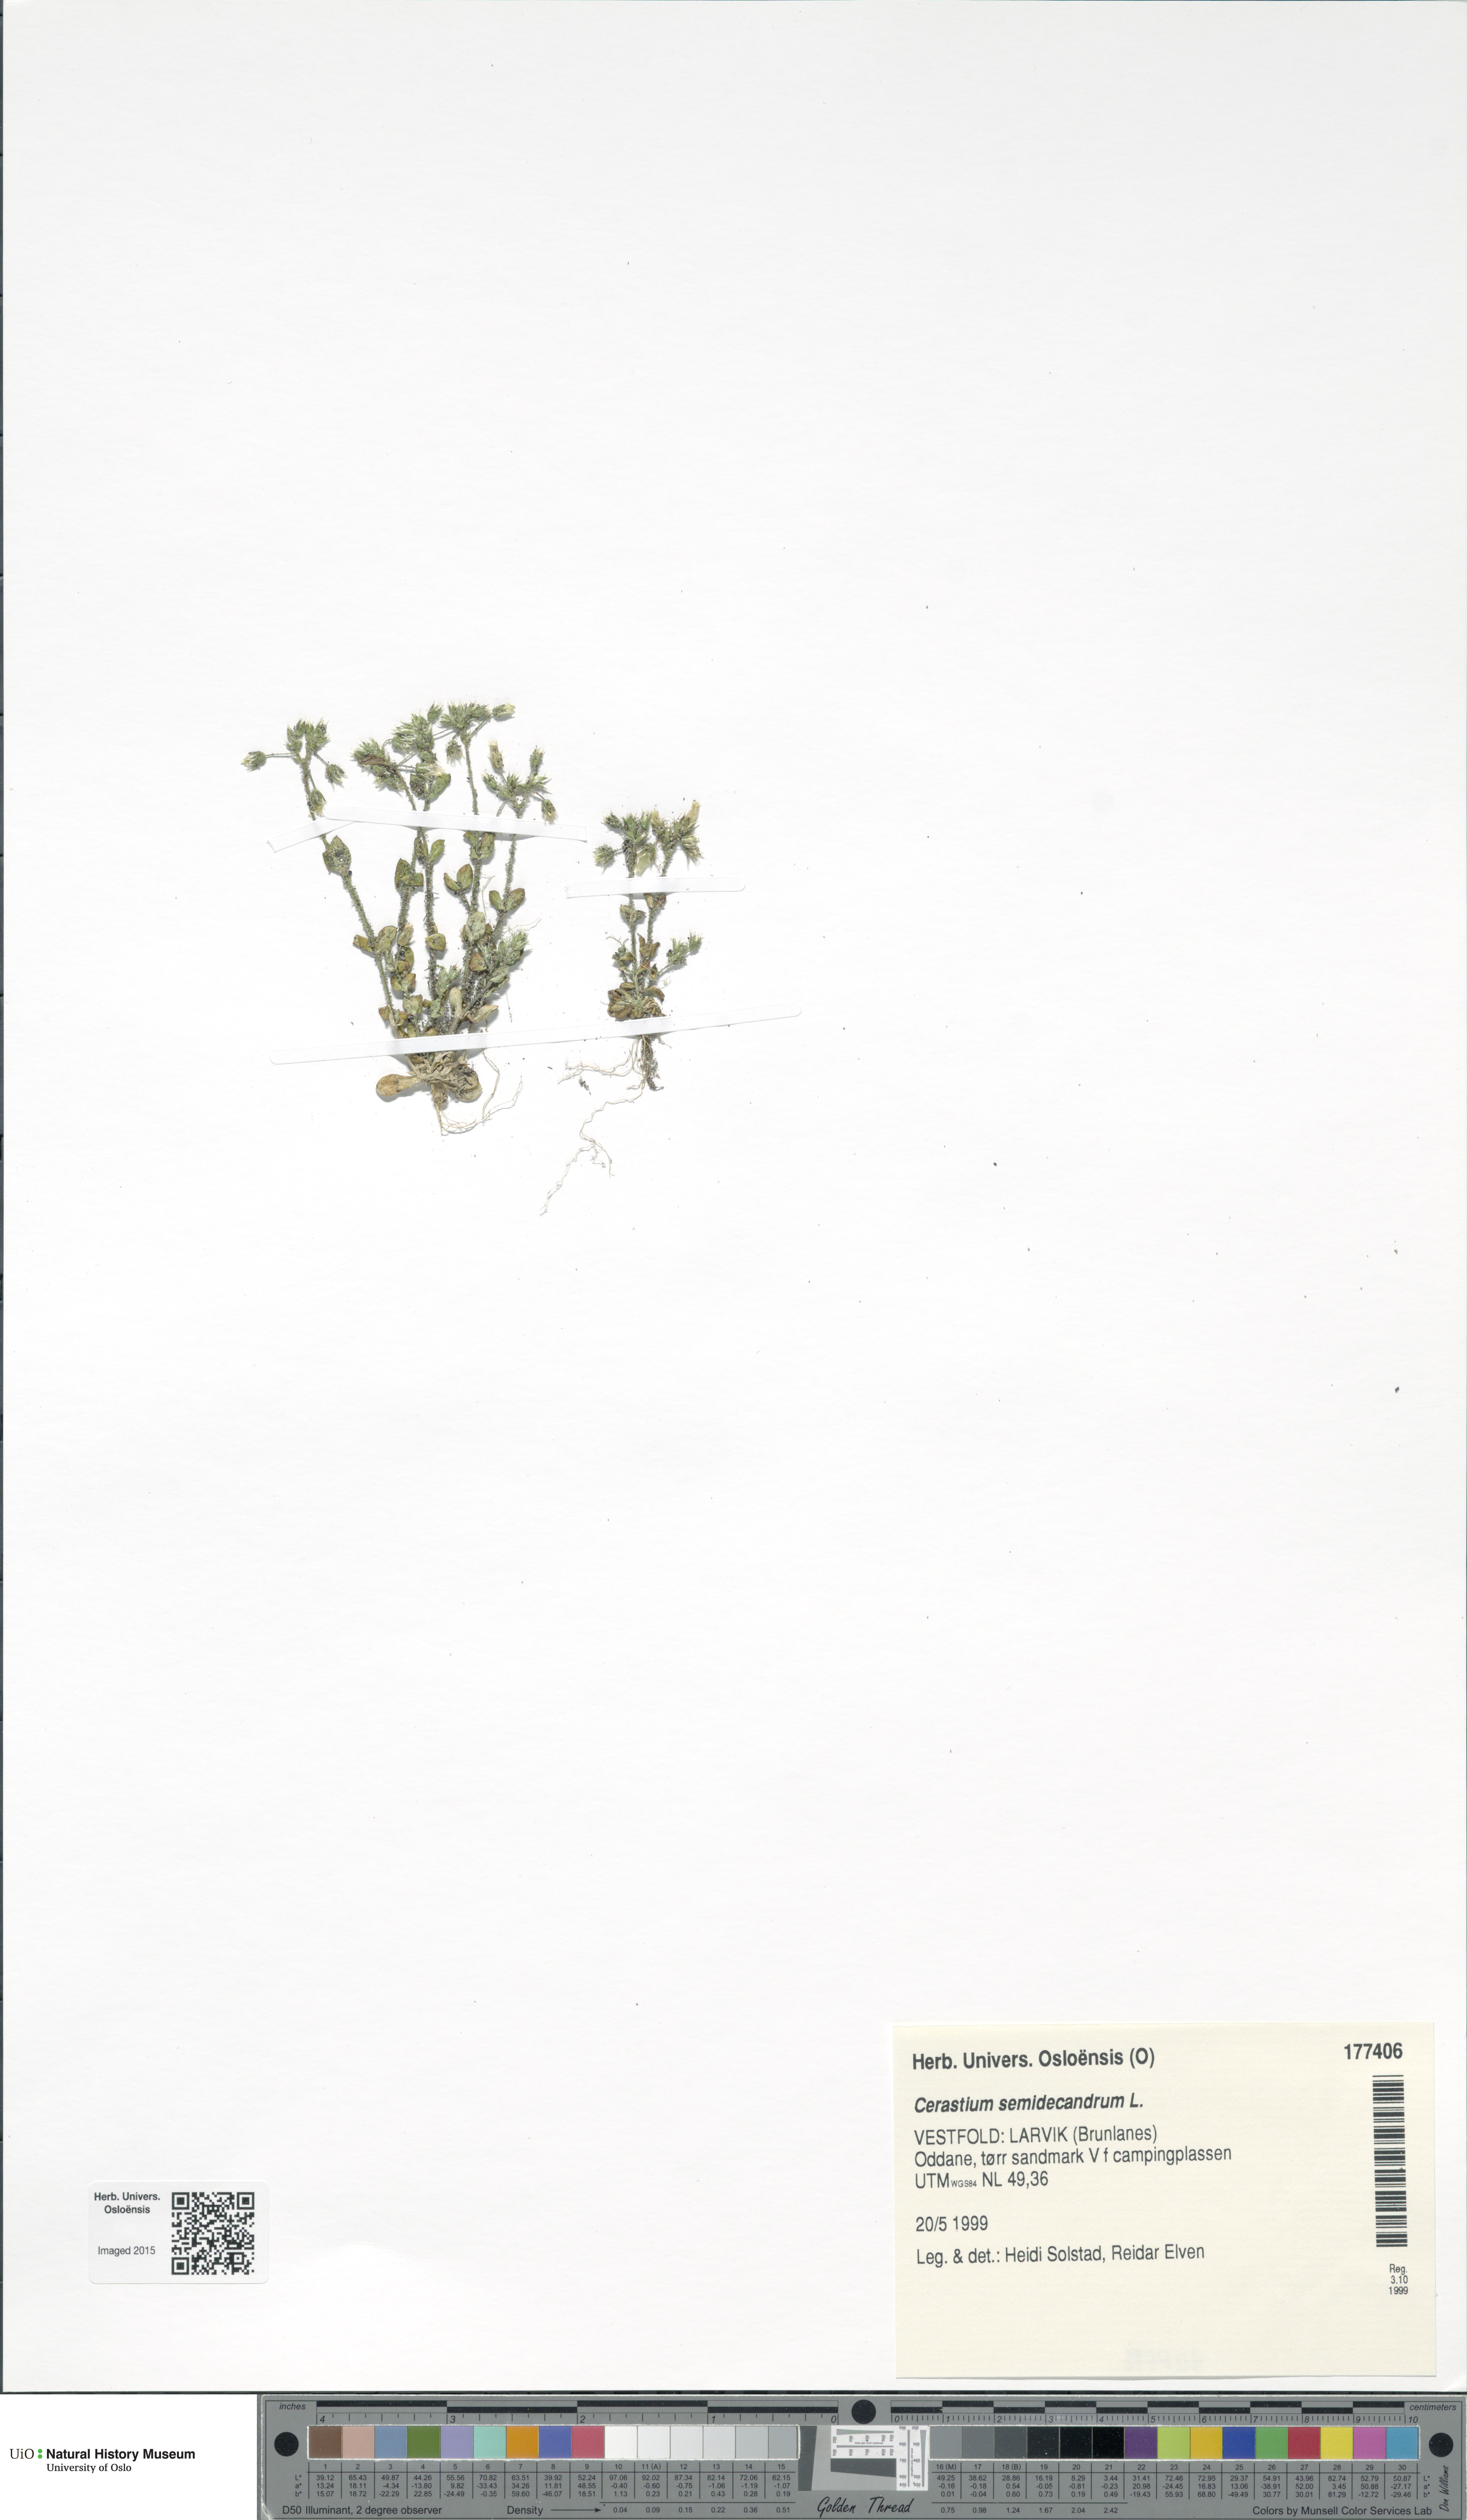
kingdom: Plantae
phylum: Tracheophyta
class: Magnoliopsida
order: Caryophyllales
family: Caryophyllaceae
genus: Cerastium
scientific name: Cerastium semidecandrum
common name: Little mouse-ear
